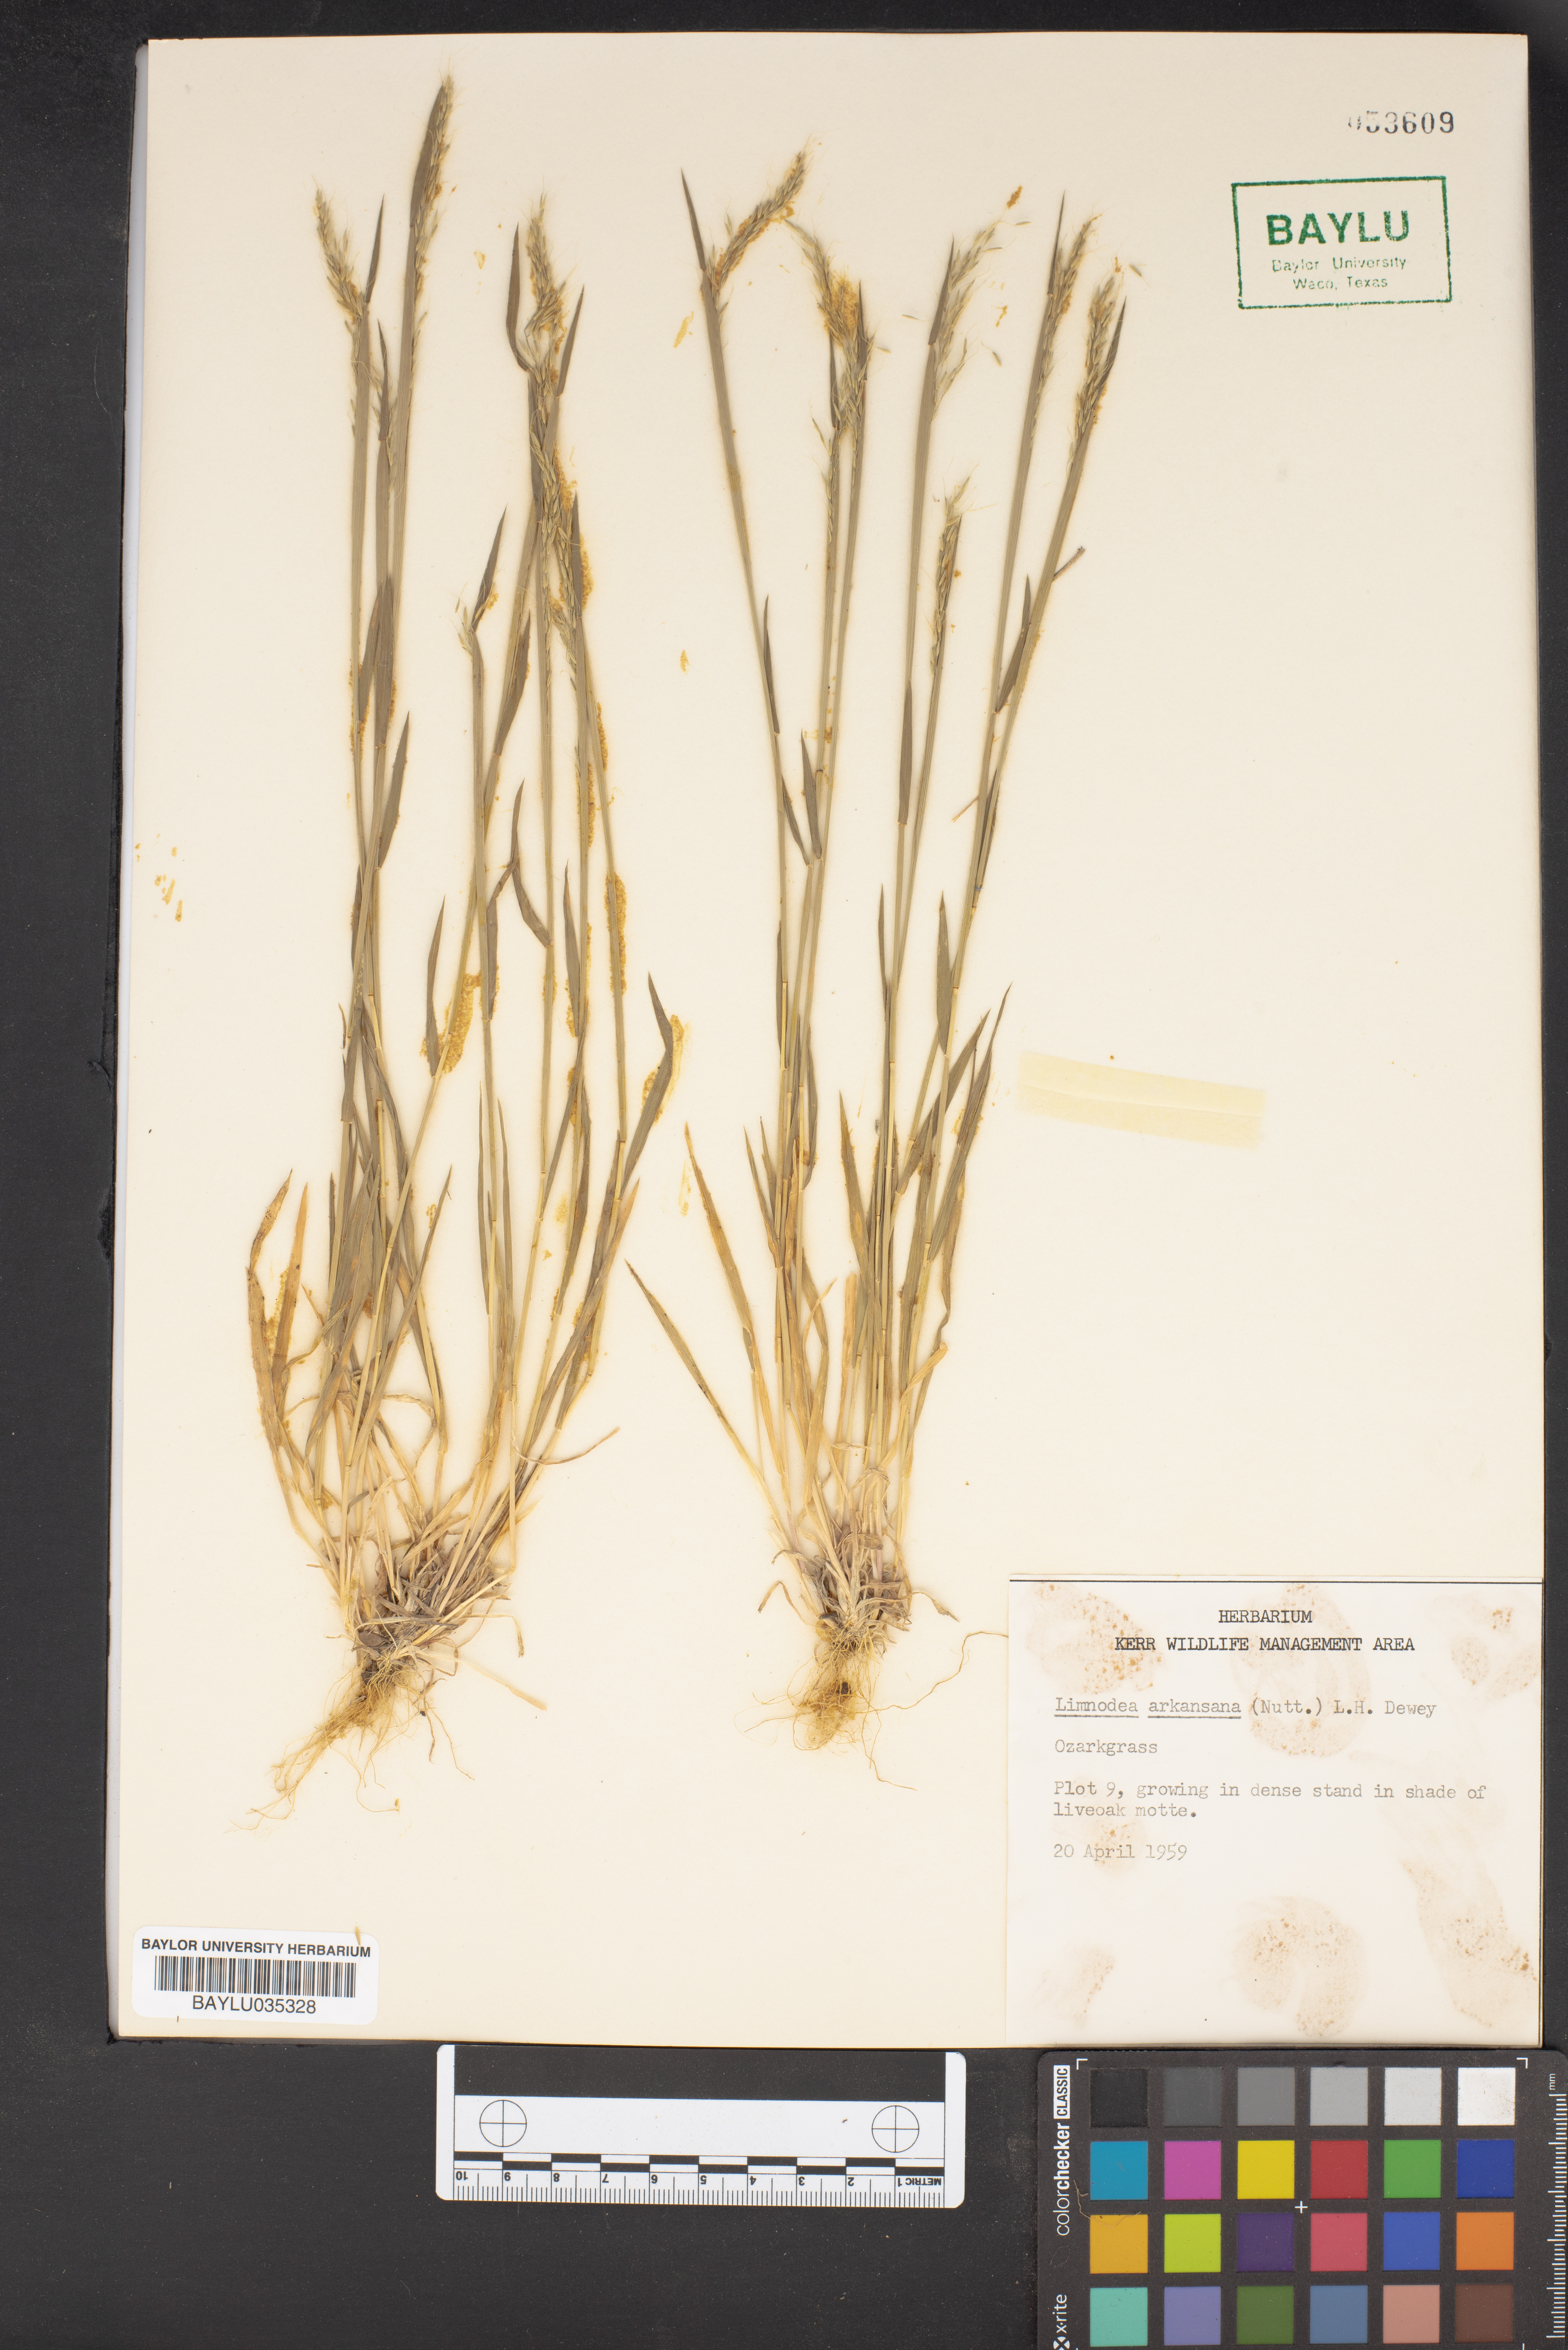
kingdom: Plantae
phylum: Tracheophyta
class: Liliopsida
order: Poales
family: Poaceae
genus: Limnodea
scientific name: Limnodea arkansana
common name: Ozark-grass
